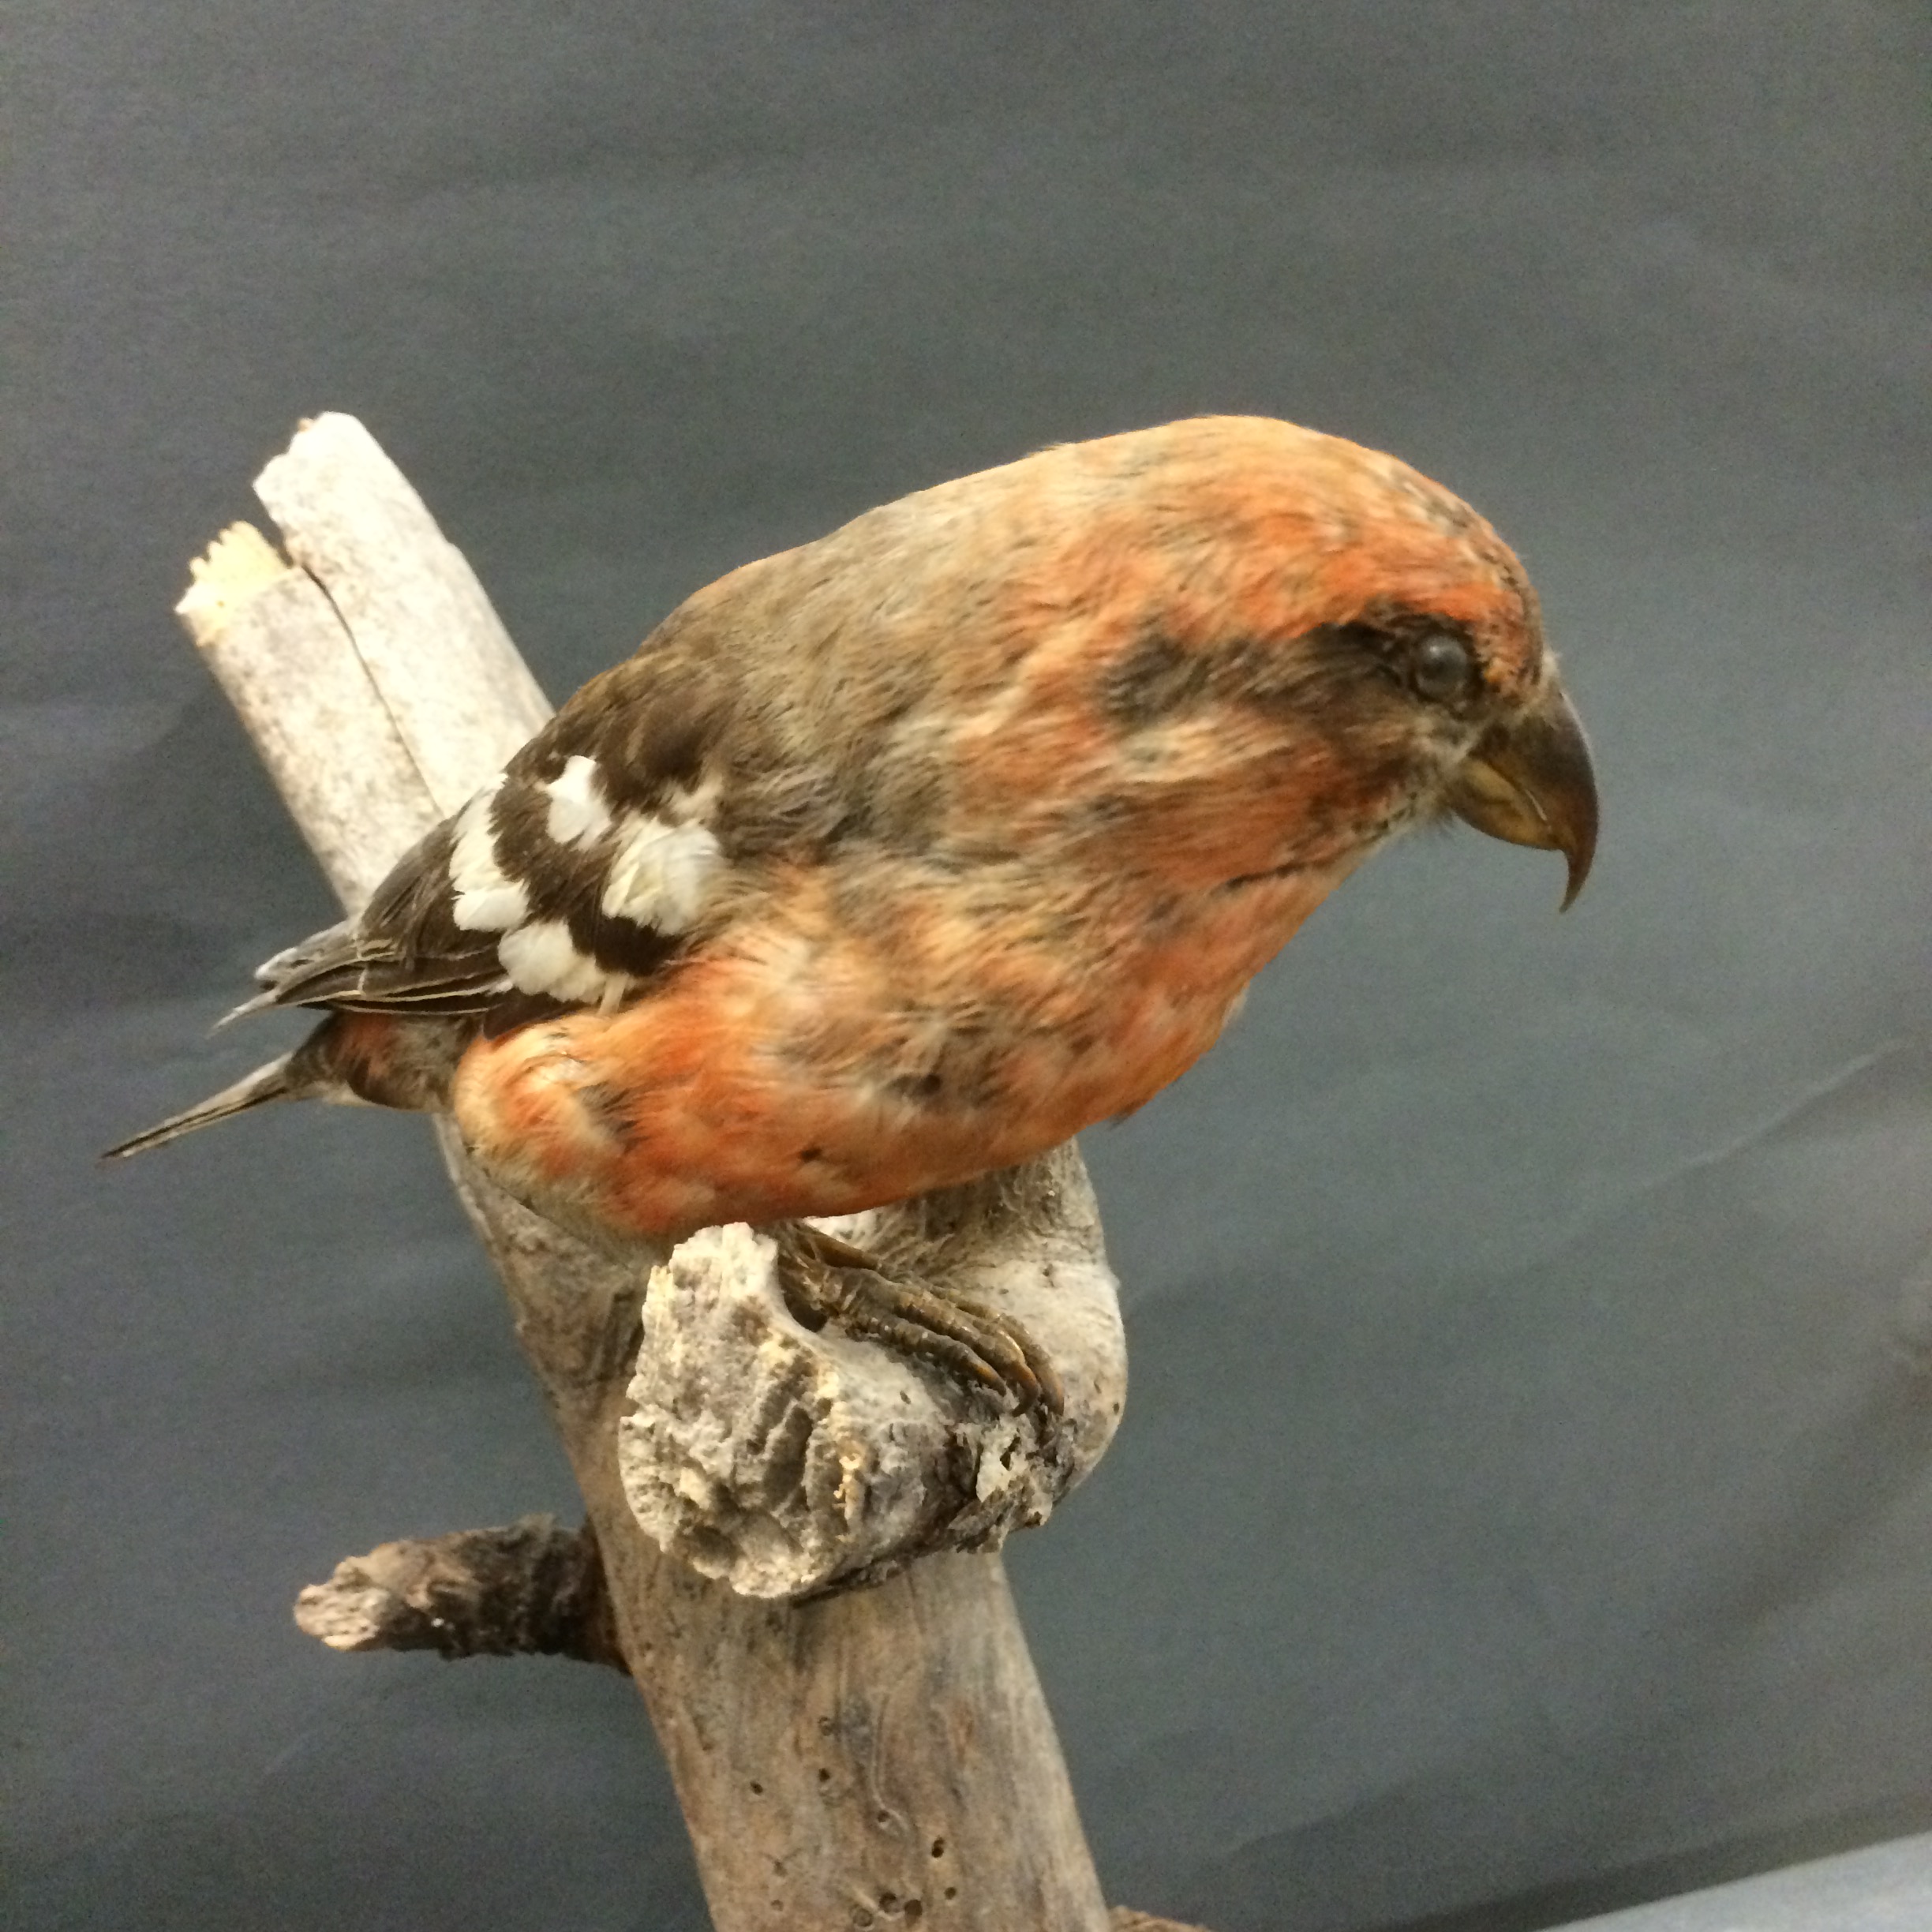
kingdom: Animalia
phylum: Chordata
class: Aves
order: Passeriformes
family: Fringillidae
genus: Loxia
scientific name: Loxia leucoptera
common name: Two-barred crossbill
